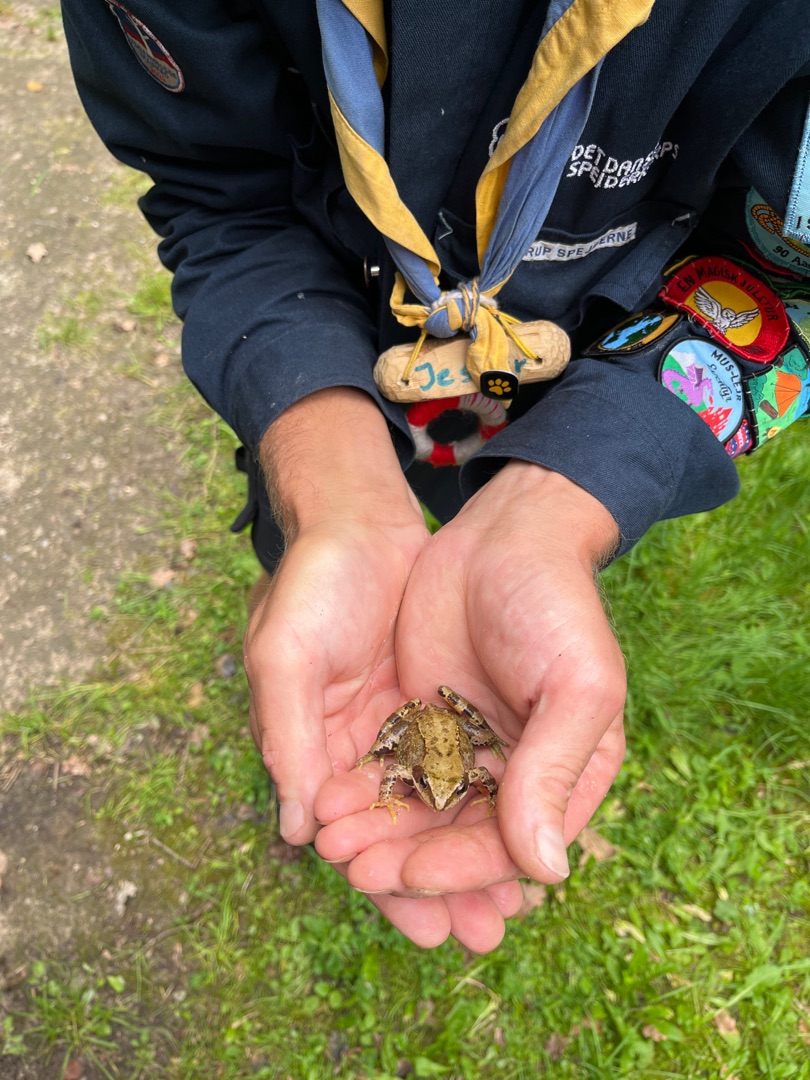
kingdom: Animalia
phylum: Chordata
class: Amphibia
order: Anura
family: Ranidae
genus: Rana
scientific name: Rana temporaria
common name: Butsnudet frø
